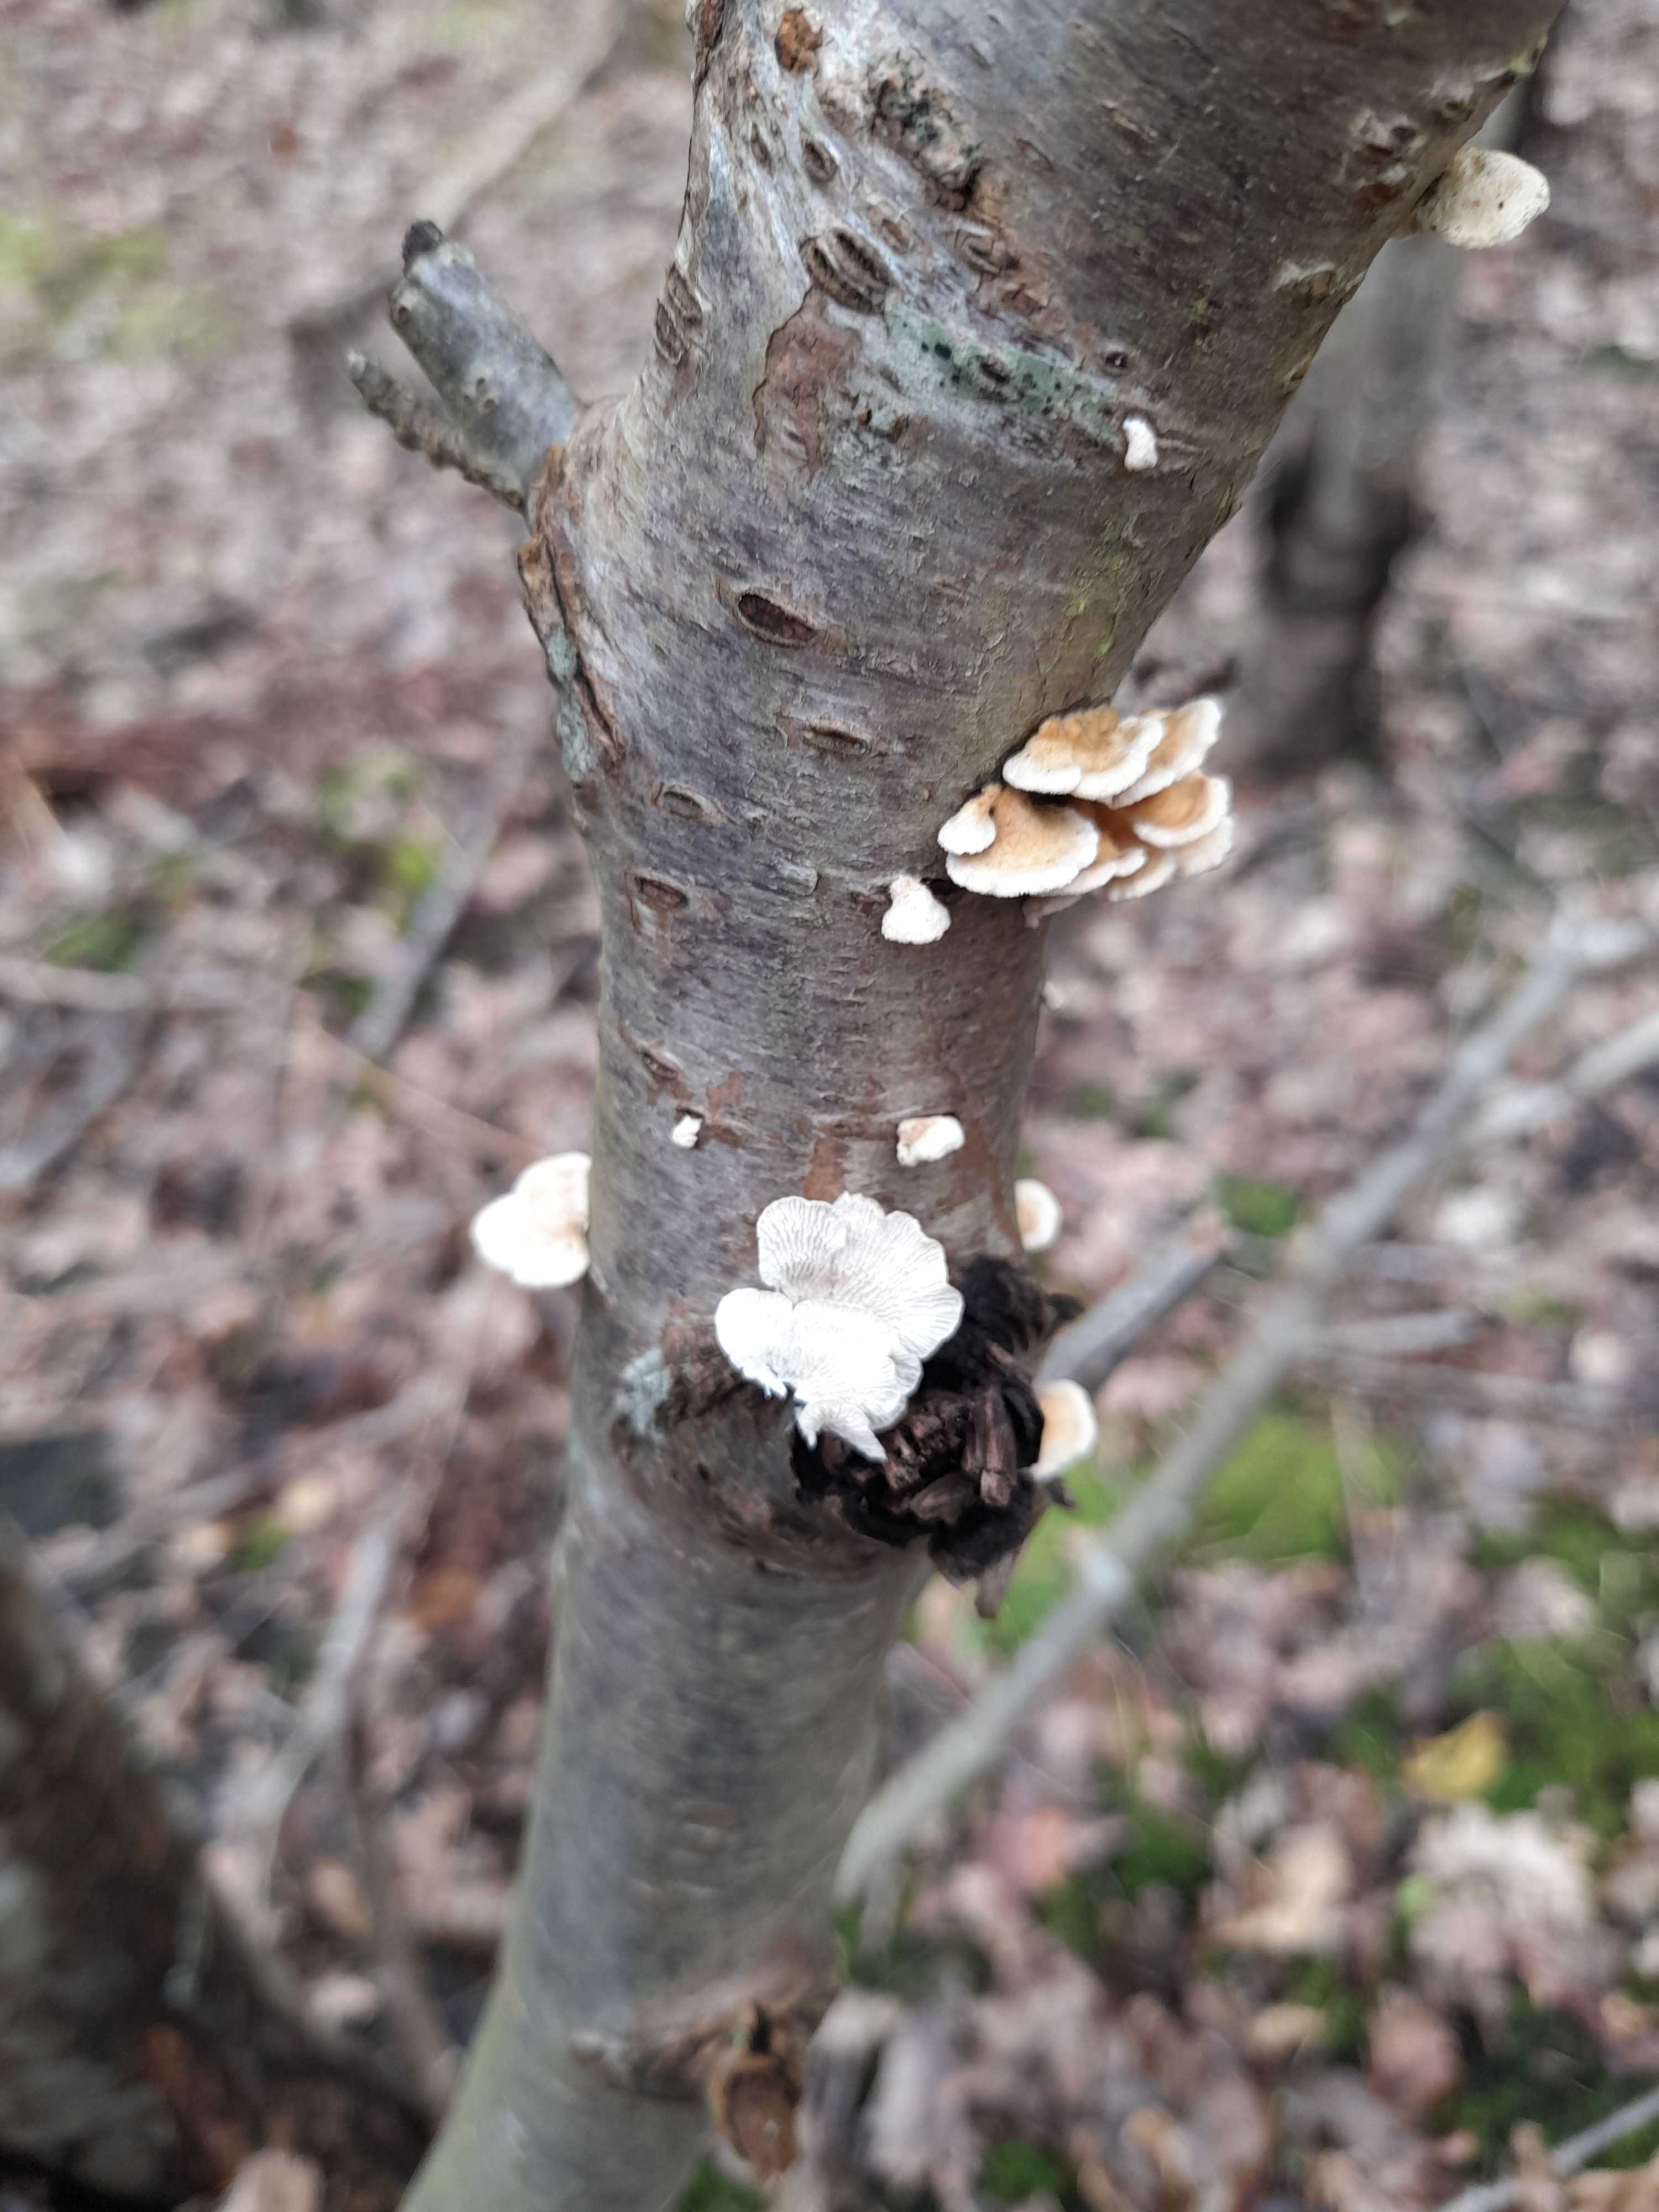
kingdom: Fungi
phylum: Basidiomycota
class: Agaricomycetes
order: Amylocorticiales
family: Amylocorticiaceae
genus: Plicaturopsis
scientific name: Plicaturopsis crispa
